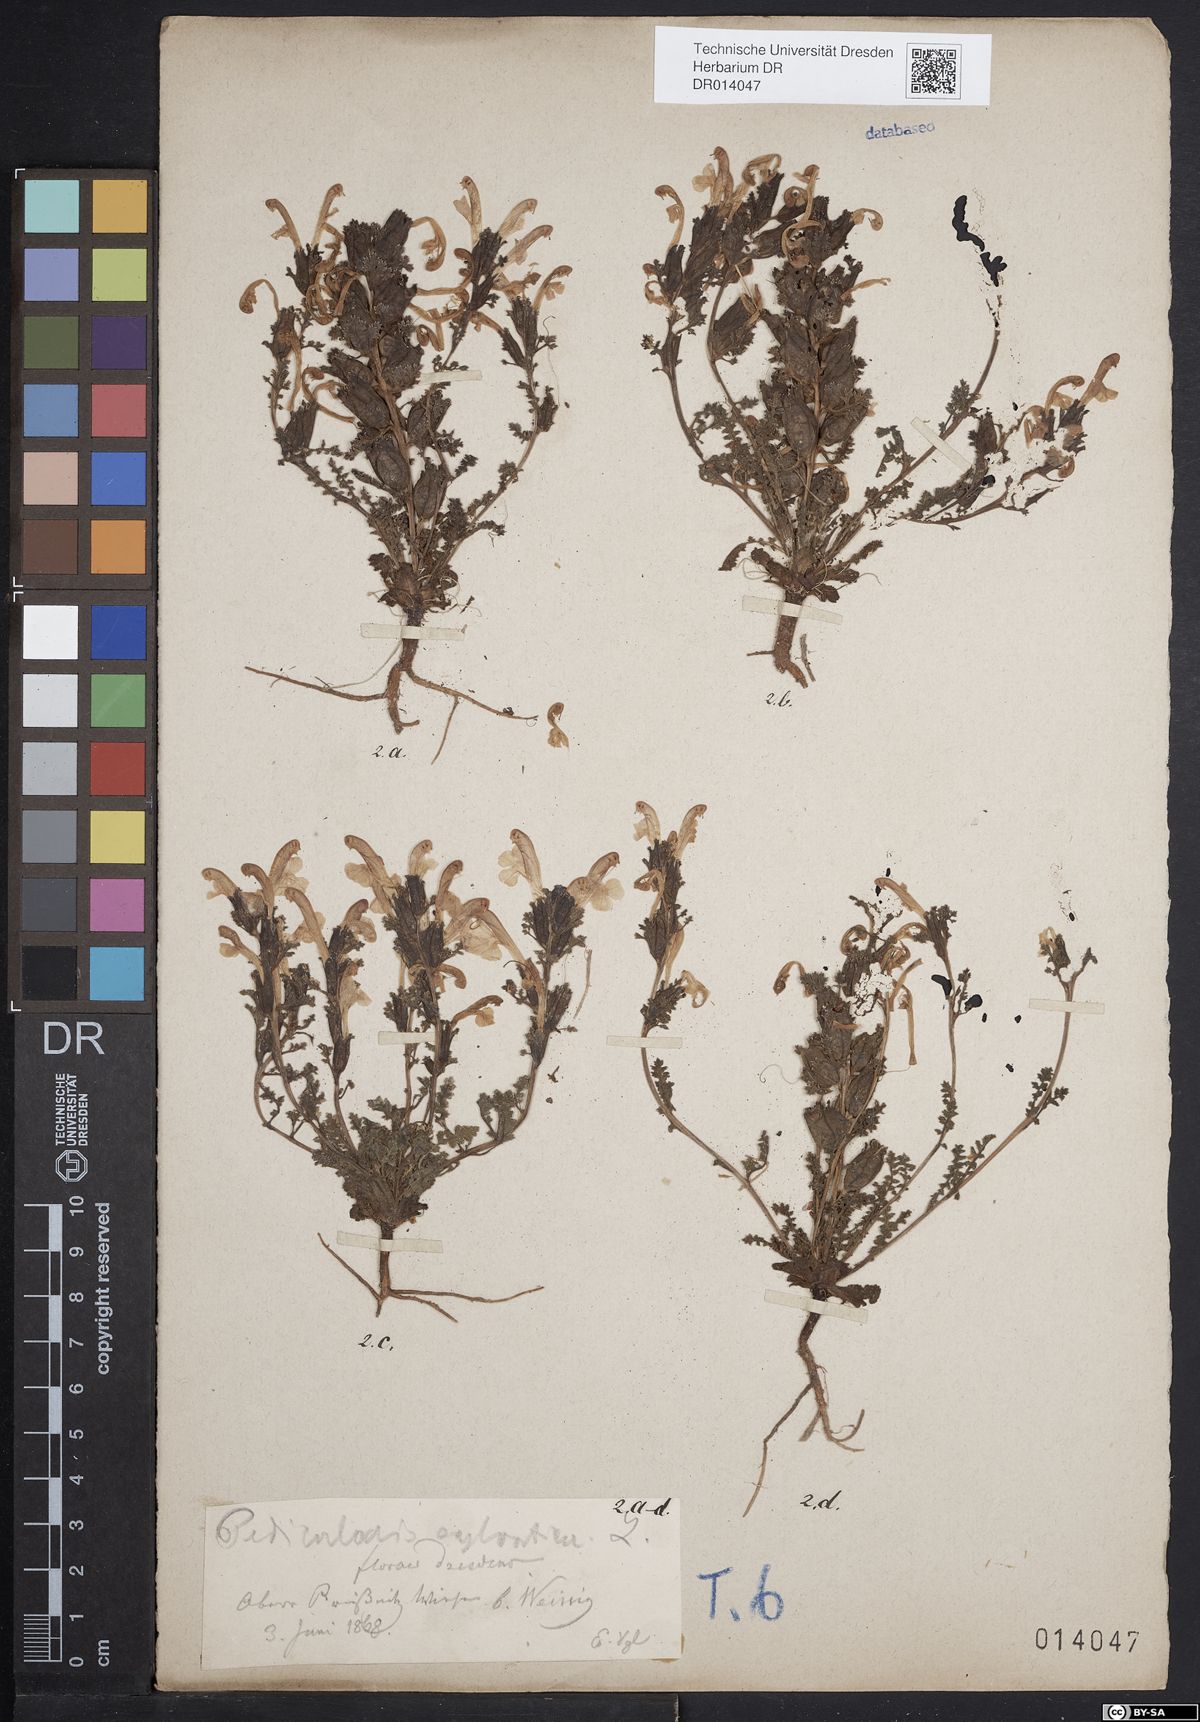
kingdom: Plantae
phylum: Tracheophyta
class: Magnoliopsida
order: Lamiales
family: Orobanchaceae
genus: Pedicularis
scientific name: Pedicularis sylvatica
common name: Lousewort
